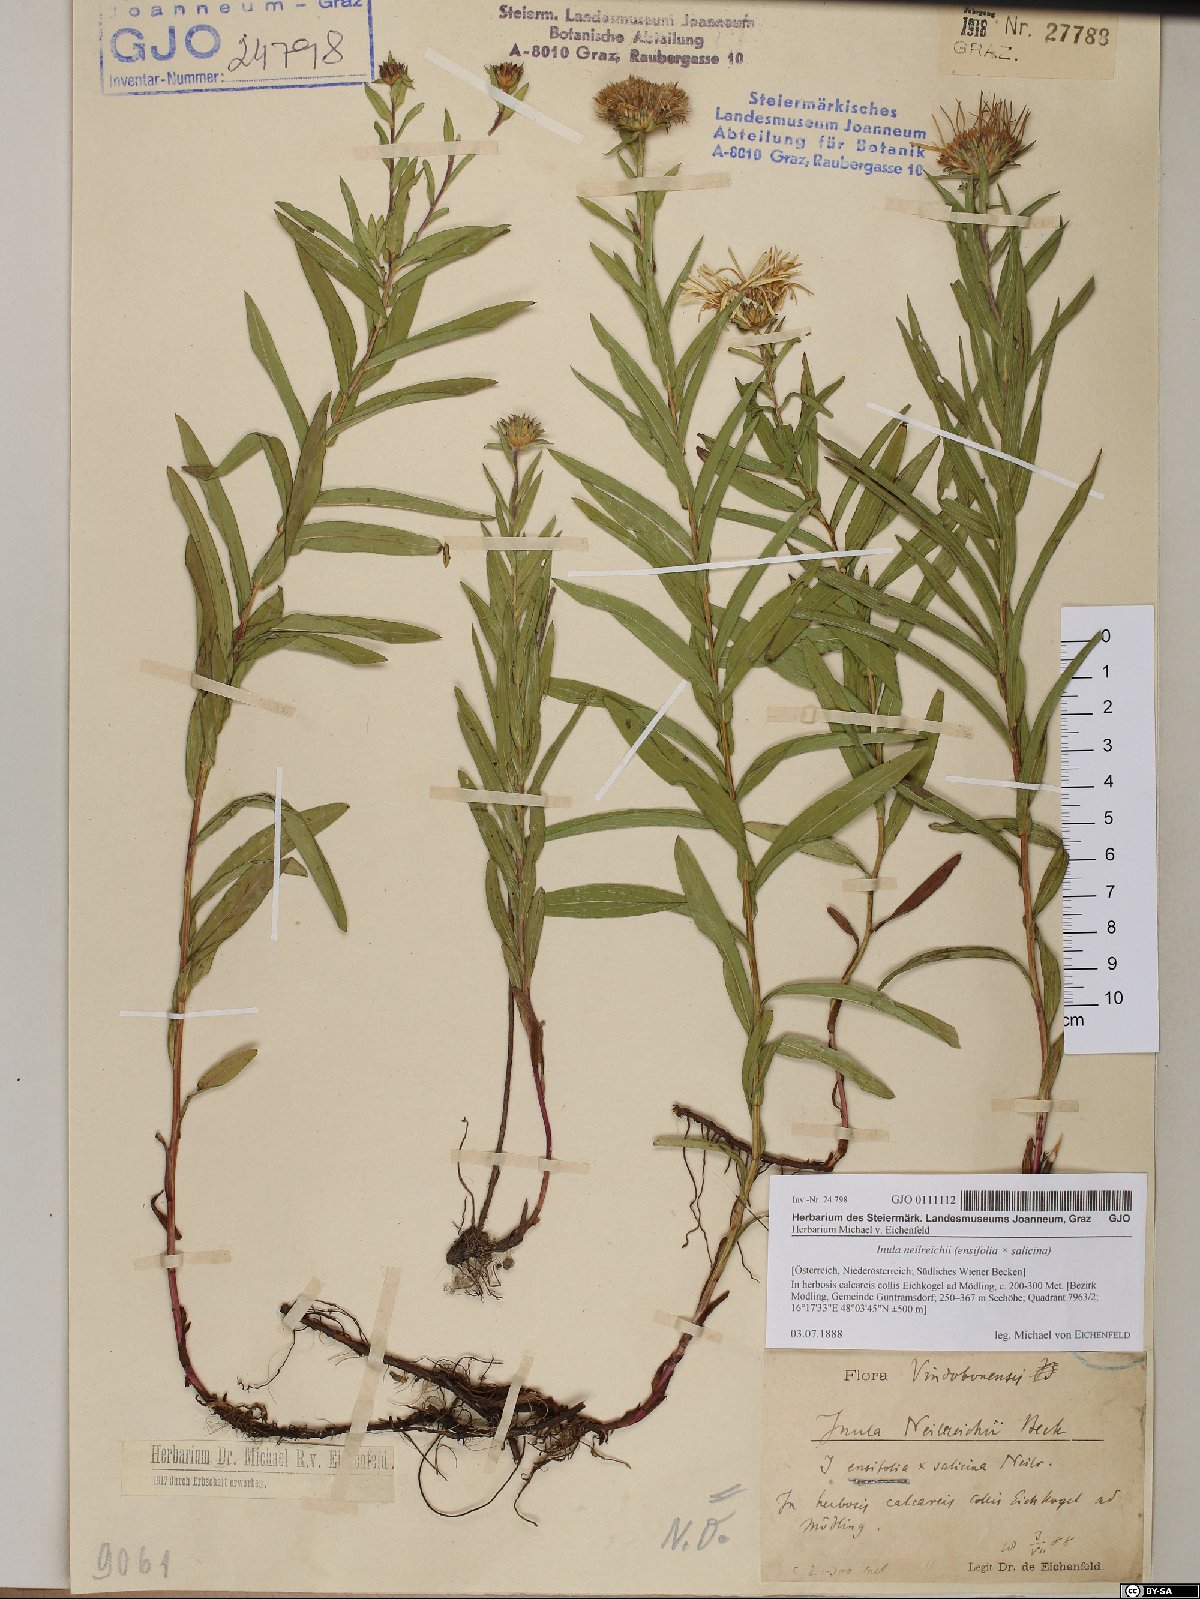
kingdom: Plantae
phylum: Tracheophyta
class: Magnoliopsida
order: Asterales
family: Asteraceae
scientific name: Asteraceae
